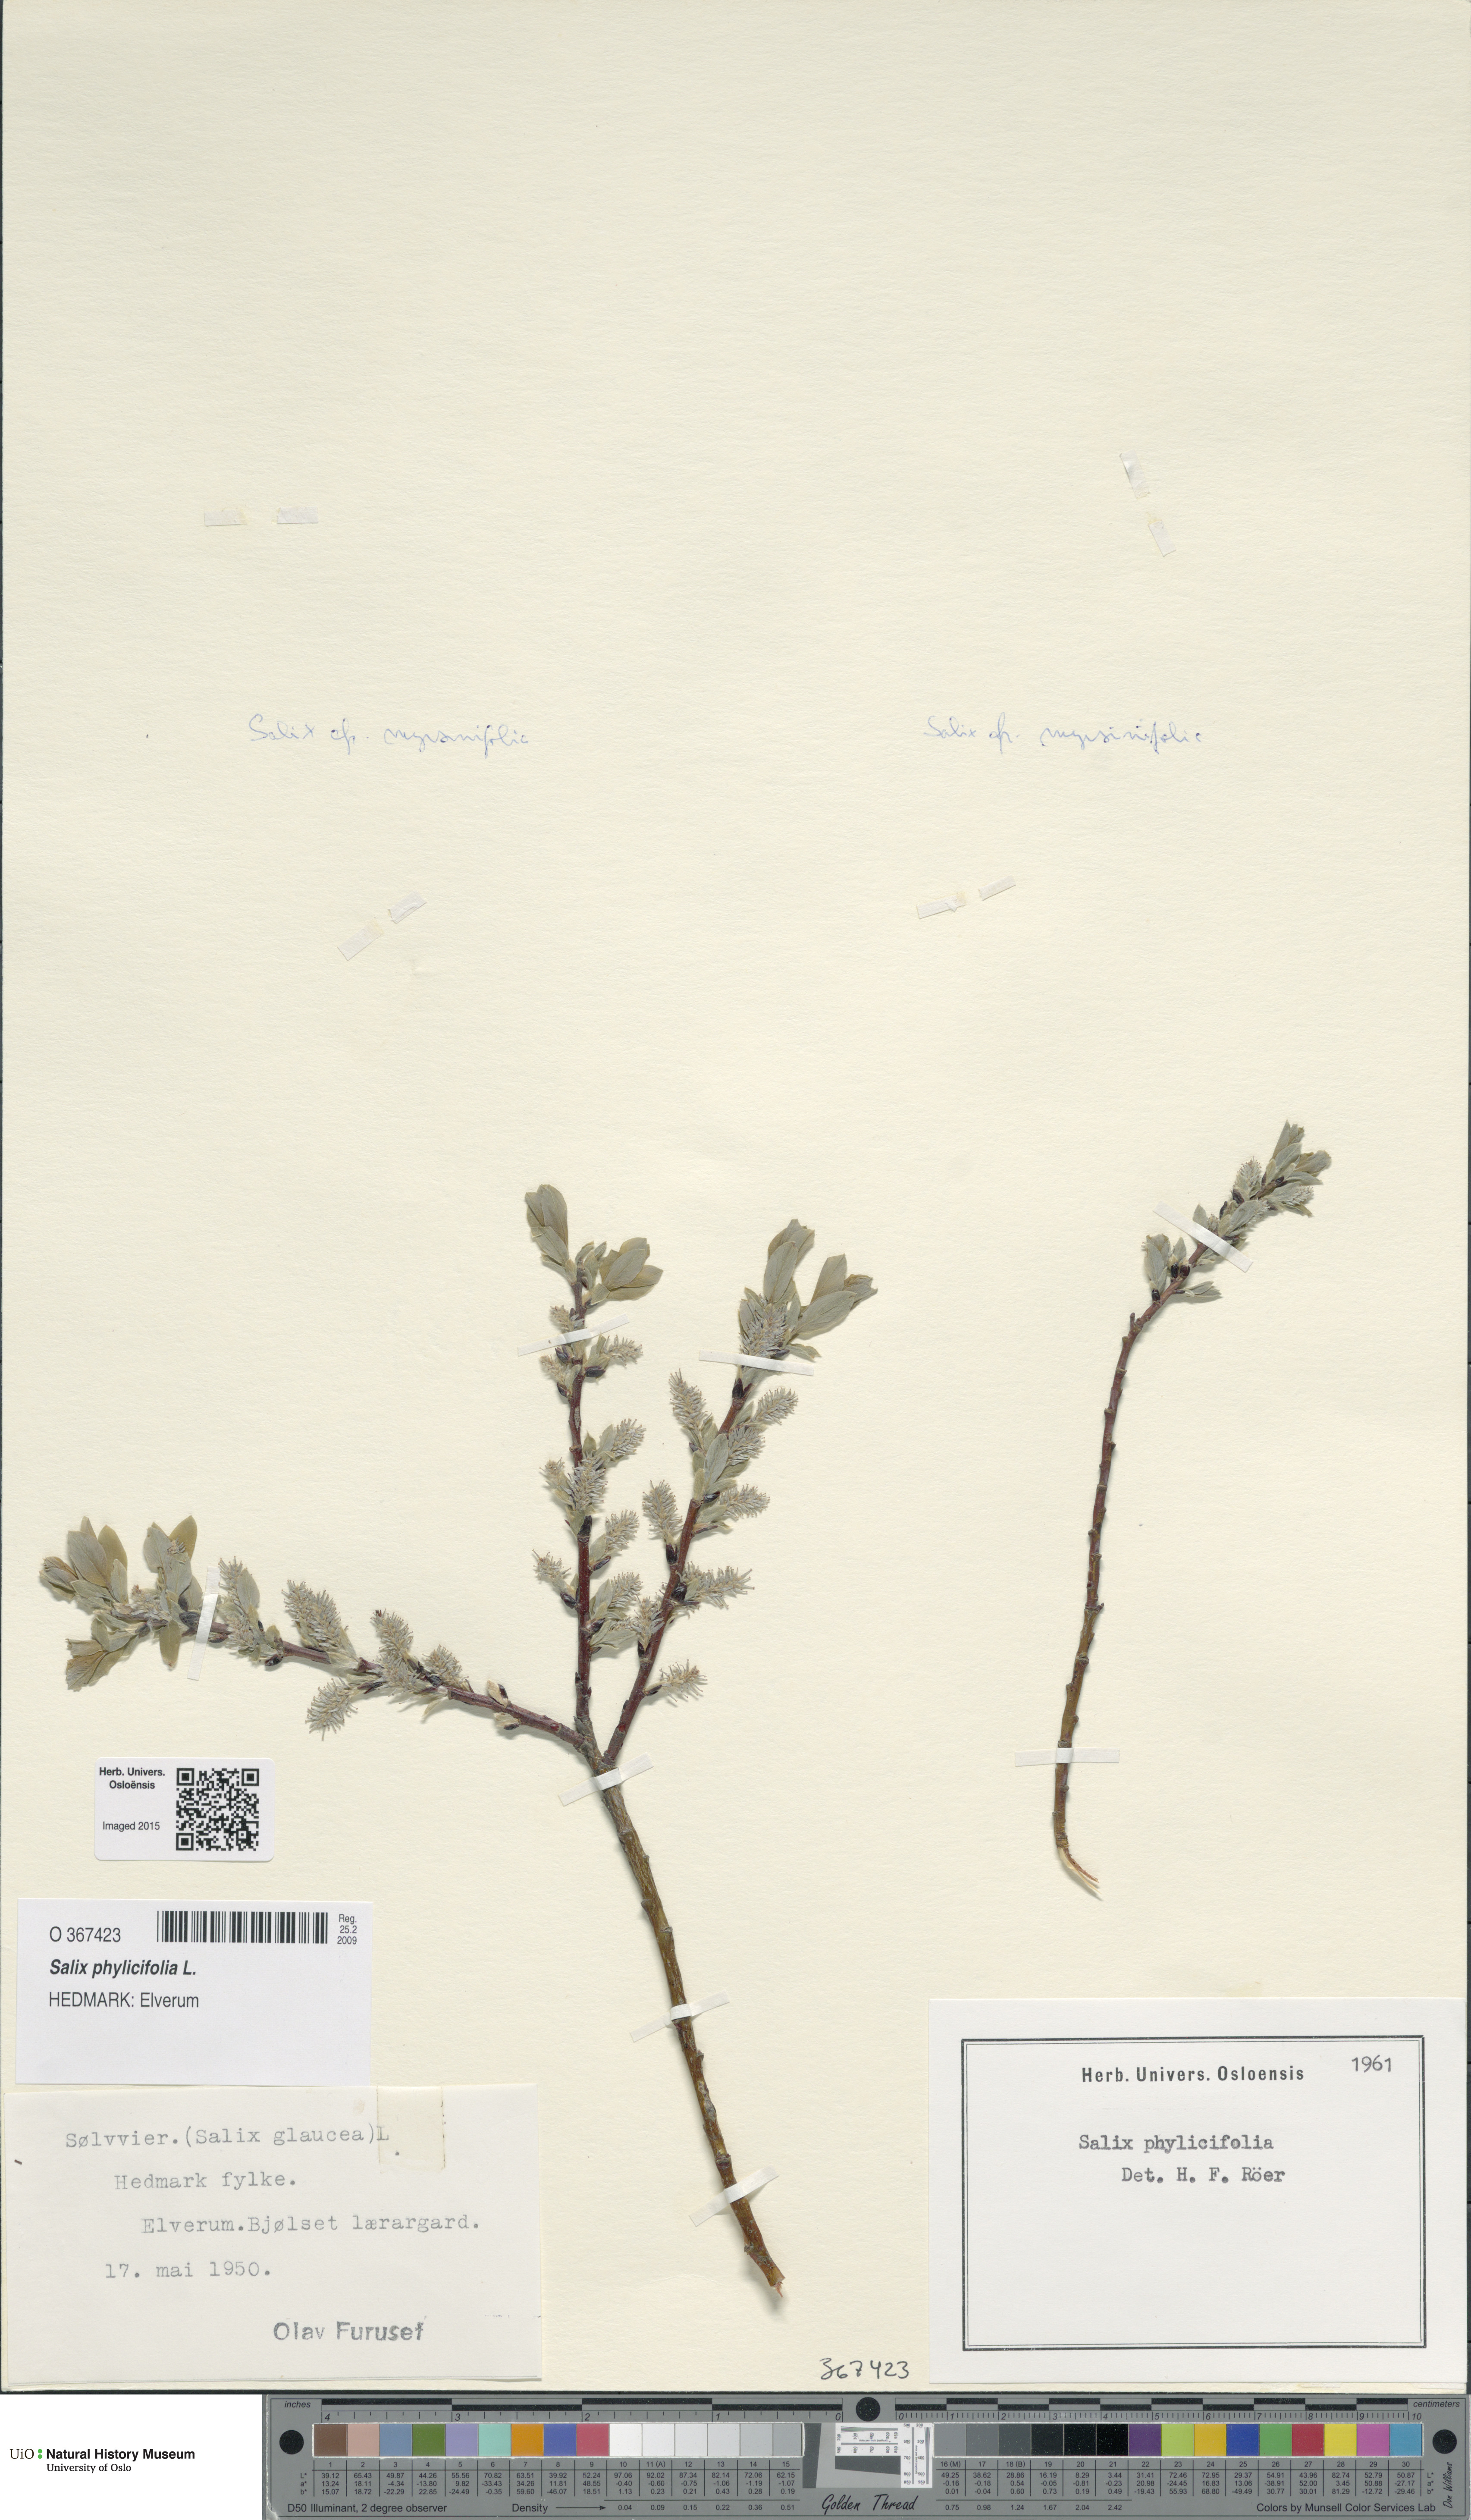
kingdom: Plantae
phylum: Tracheophyta
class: Magnoliopsida
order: Malpighiales
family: Salicaceae
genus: Salix
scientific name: Salix phylicifolia
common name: Tea-leaved willow
